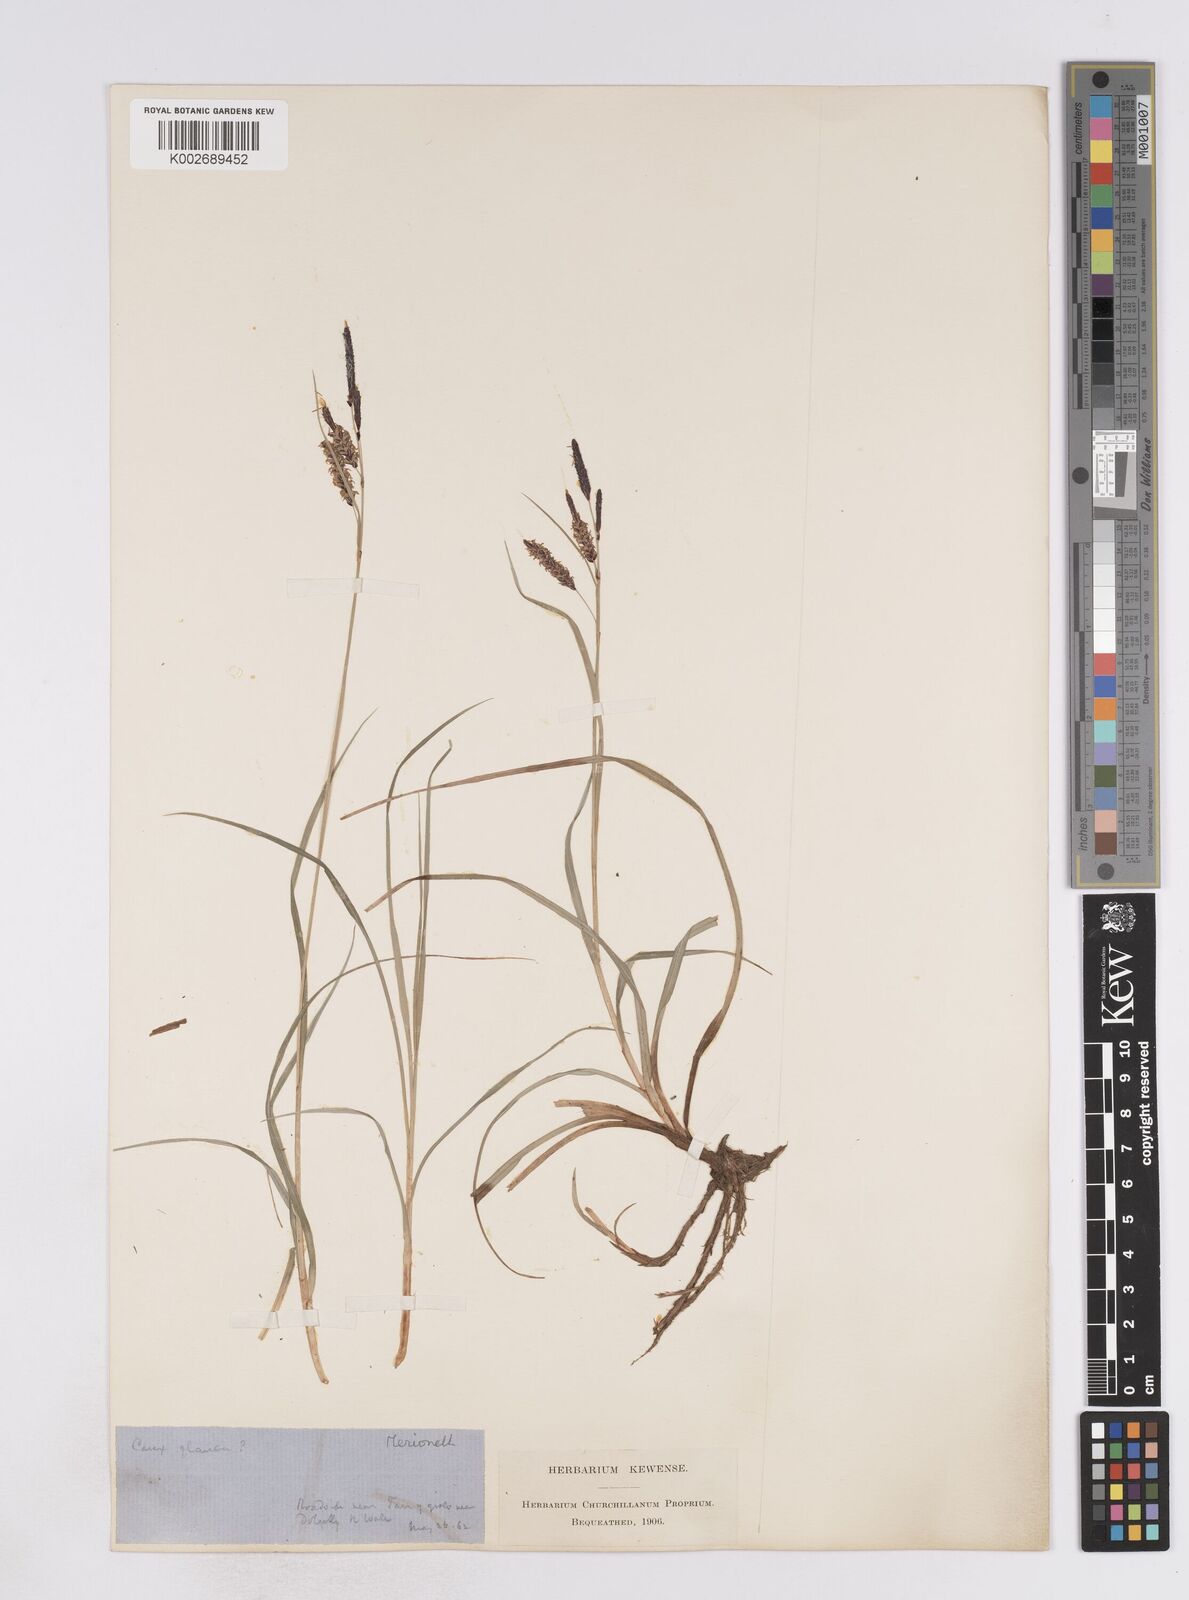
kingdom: Plantae
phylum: Tracheophyta
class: Liliopsida
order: Poales
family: Cyperaceae
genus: Carex
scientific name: Carex flacca
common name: Glaucous sedge
